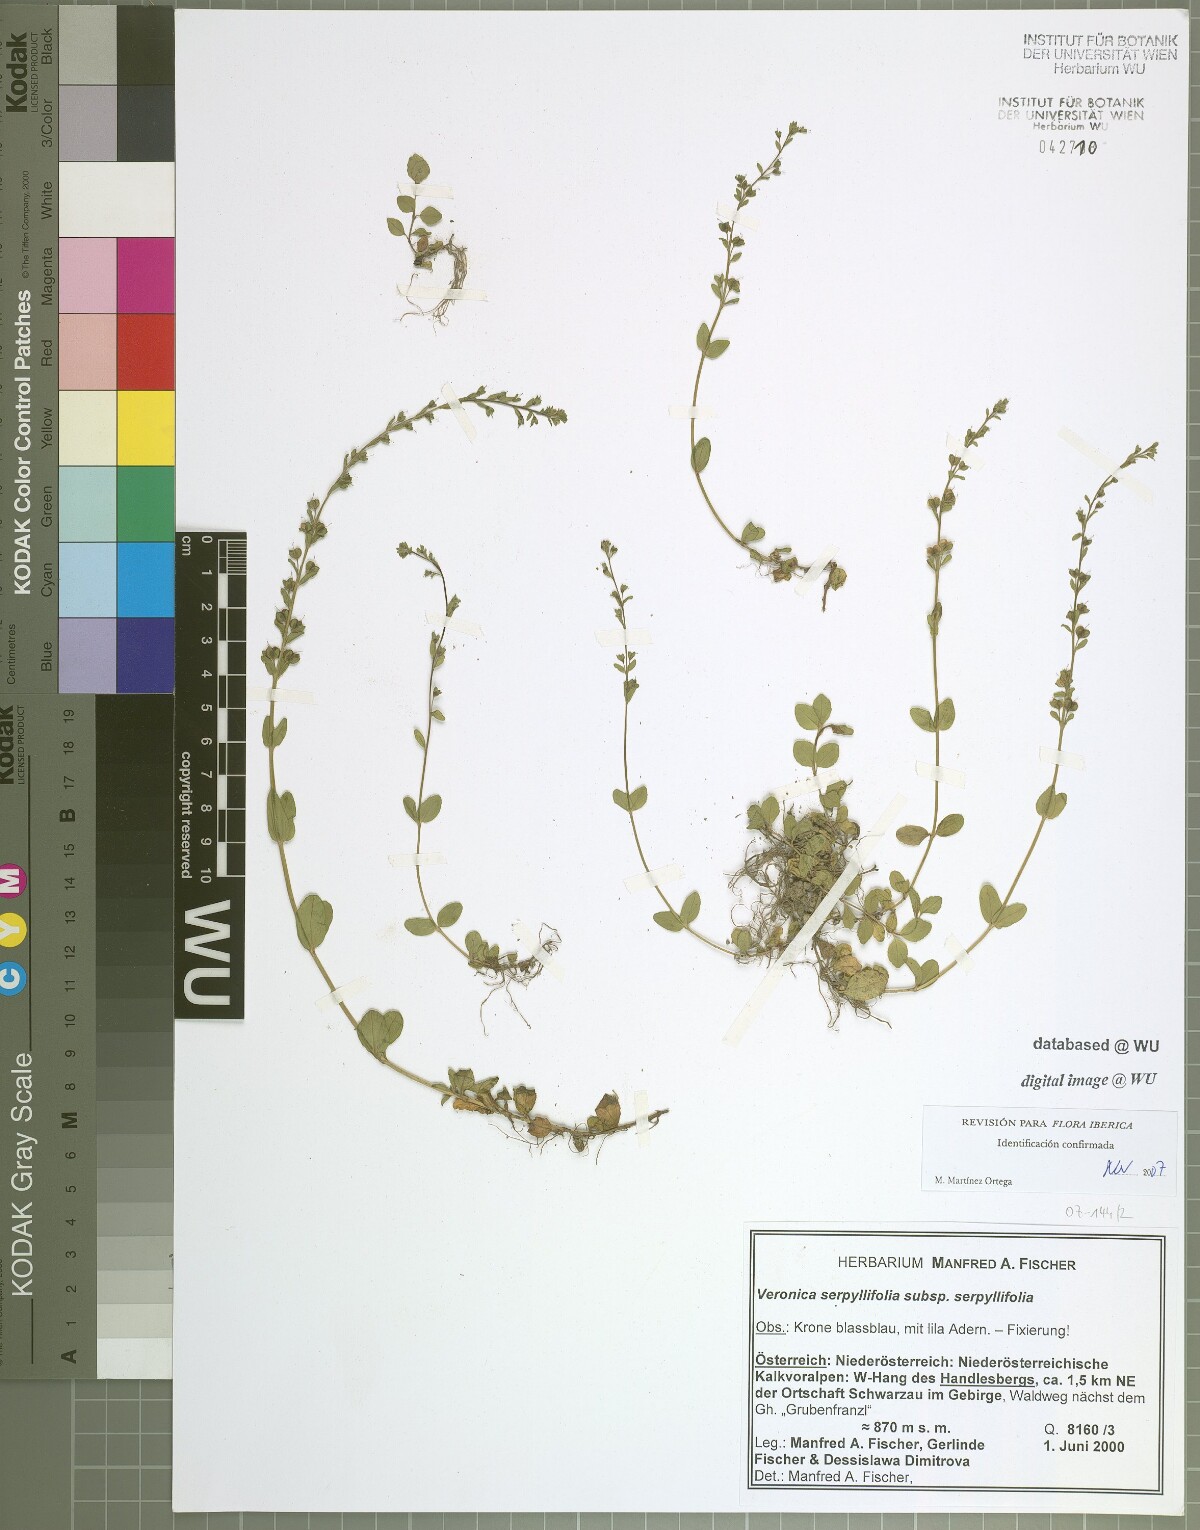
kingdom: Plantae
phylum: Tracheophyta
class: Magnoliopsida
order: Lamiales
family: Plantaginaceae
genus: Veronica
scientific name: Veronica serpyllifolia
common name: Thyme-leaved speedwell
